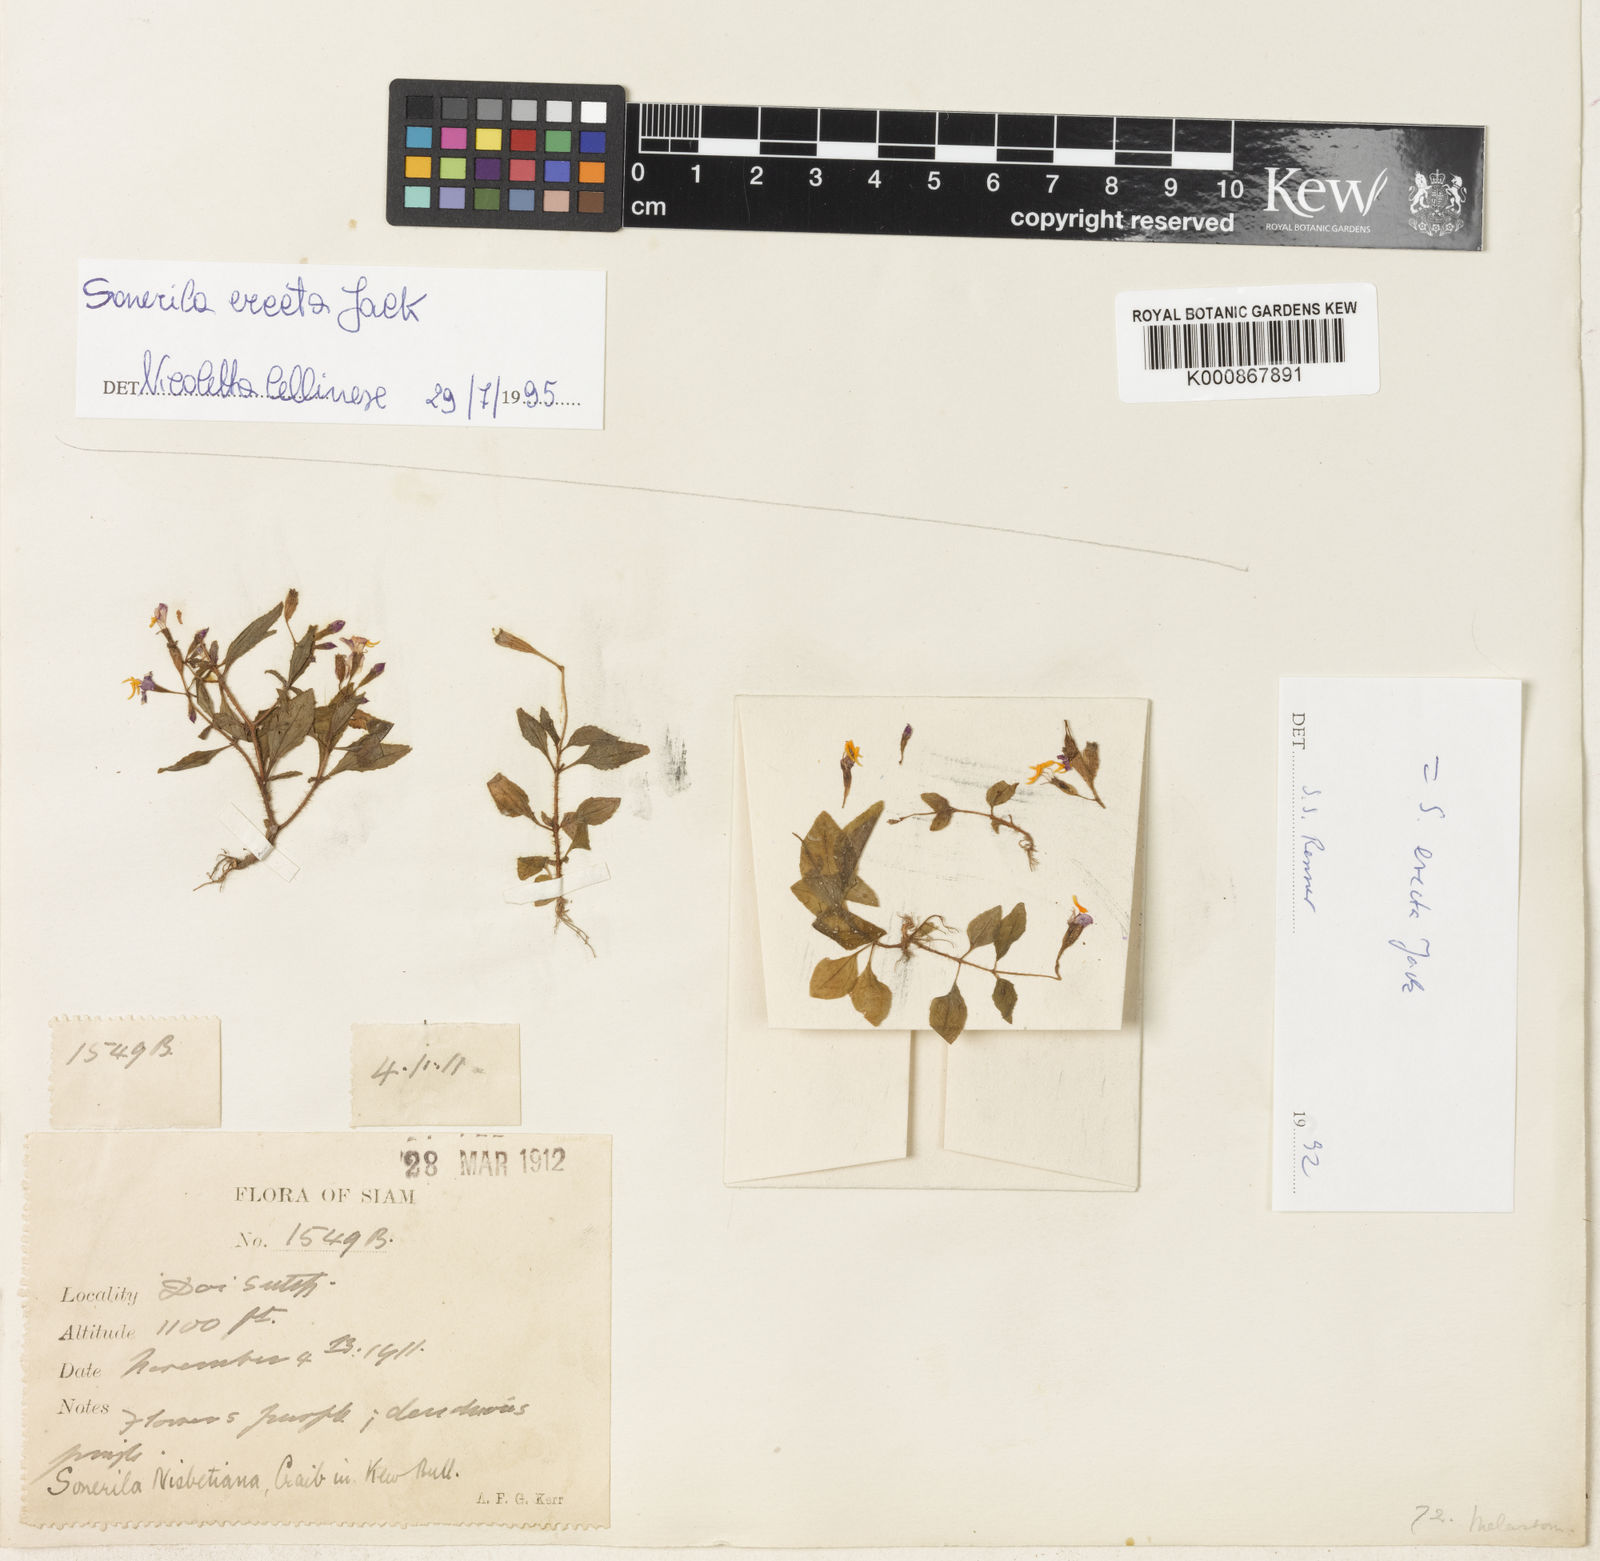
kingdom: Plantae
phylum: Tracheophyta
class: Magnoliopsida
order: Myrtales
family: Melastomataceae
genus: Sonerila
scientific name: Sonerila erecta
